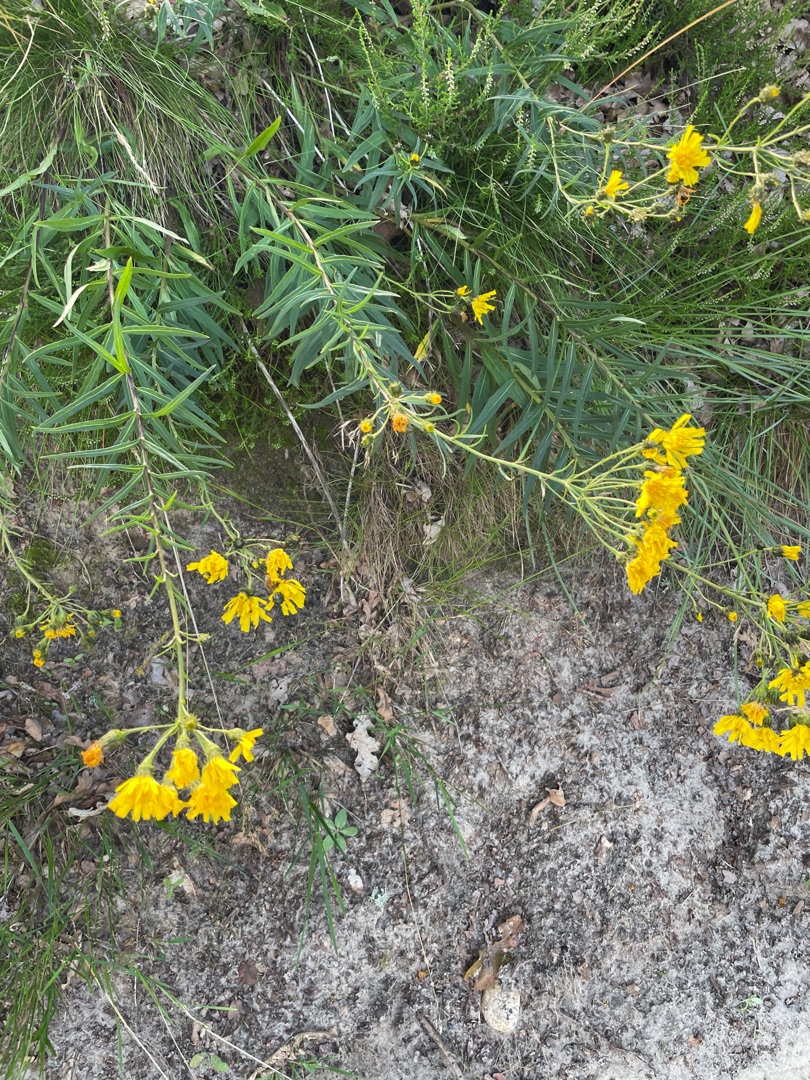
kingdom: Plantae
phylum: Tracheophyta
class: Magnoliopsida
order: Asterales
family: Asteraceae
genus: Hieracium
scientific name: Hieracium umbellatum
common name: Smalbladet høgeurt
